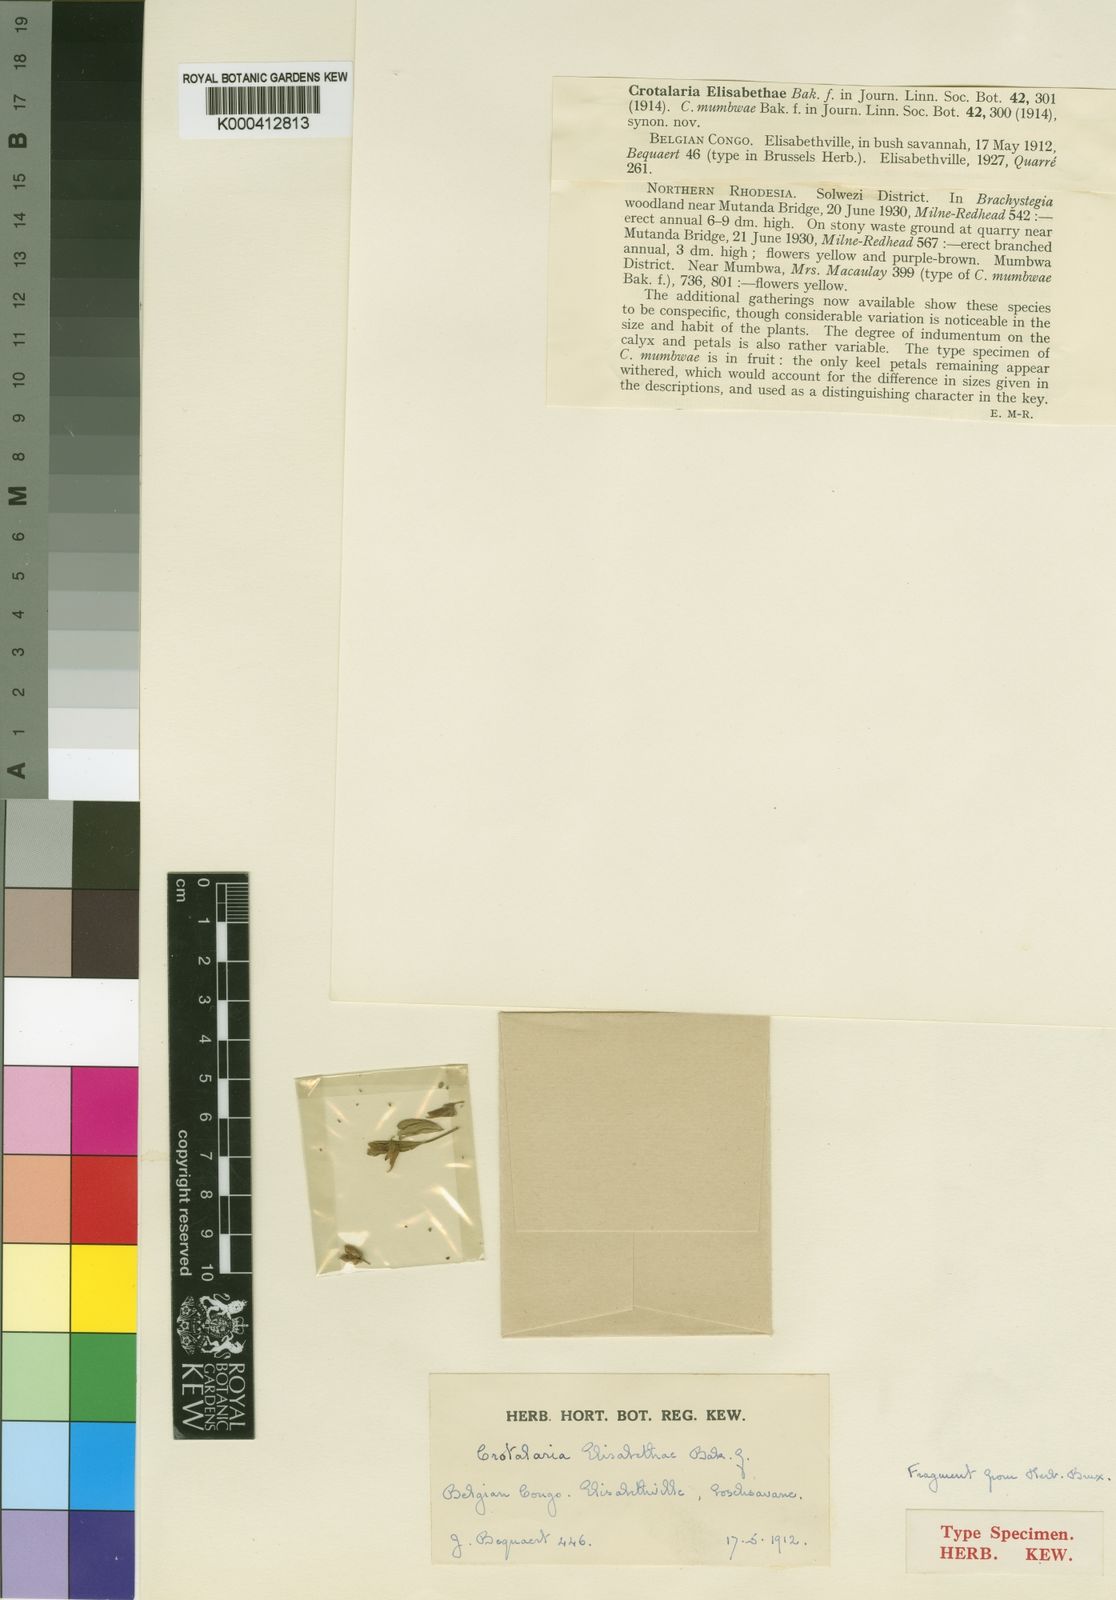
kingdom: Plantae
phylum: Tracheophyta
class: Magnoliopsida
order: Fabales
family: Fabaceae
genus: Crotalaria
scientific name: Crotalaria
